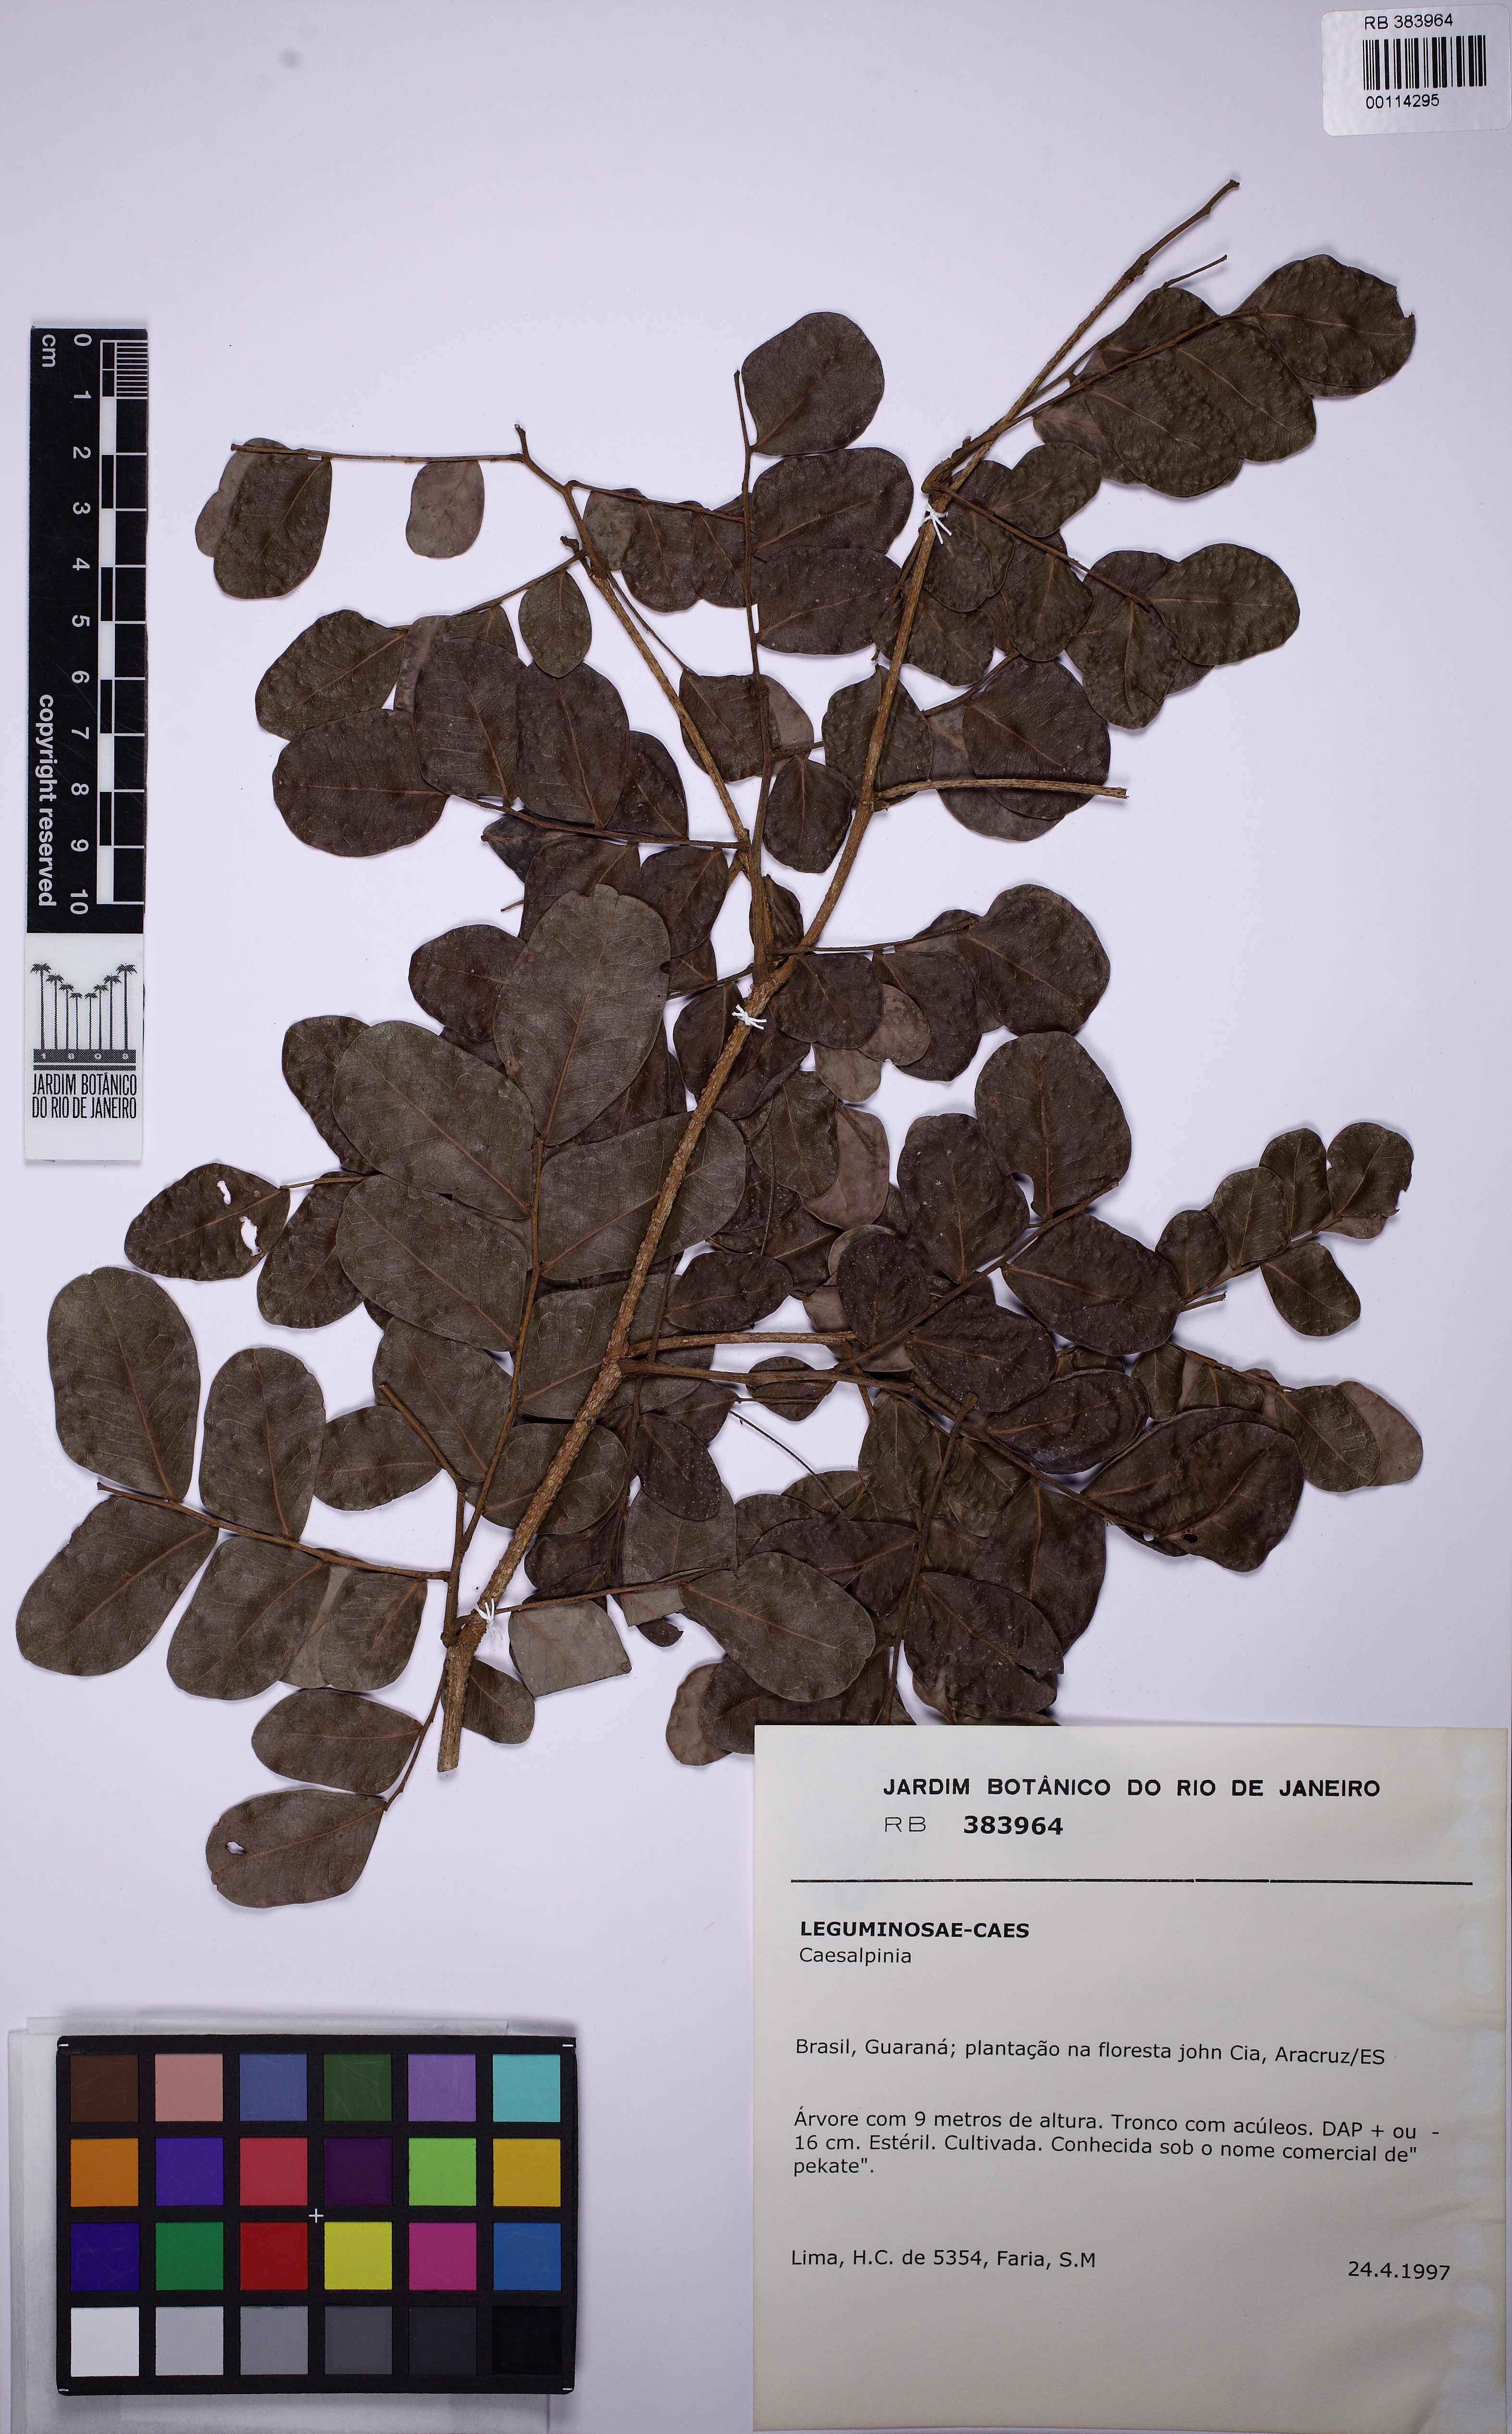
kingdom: Plantae
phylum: Tracheophyta
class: Magnoliopsida
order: Fabales
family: Fabaceae
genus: Caesalpinia
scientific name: Caesalpinia
